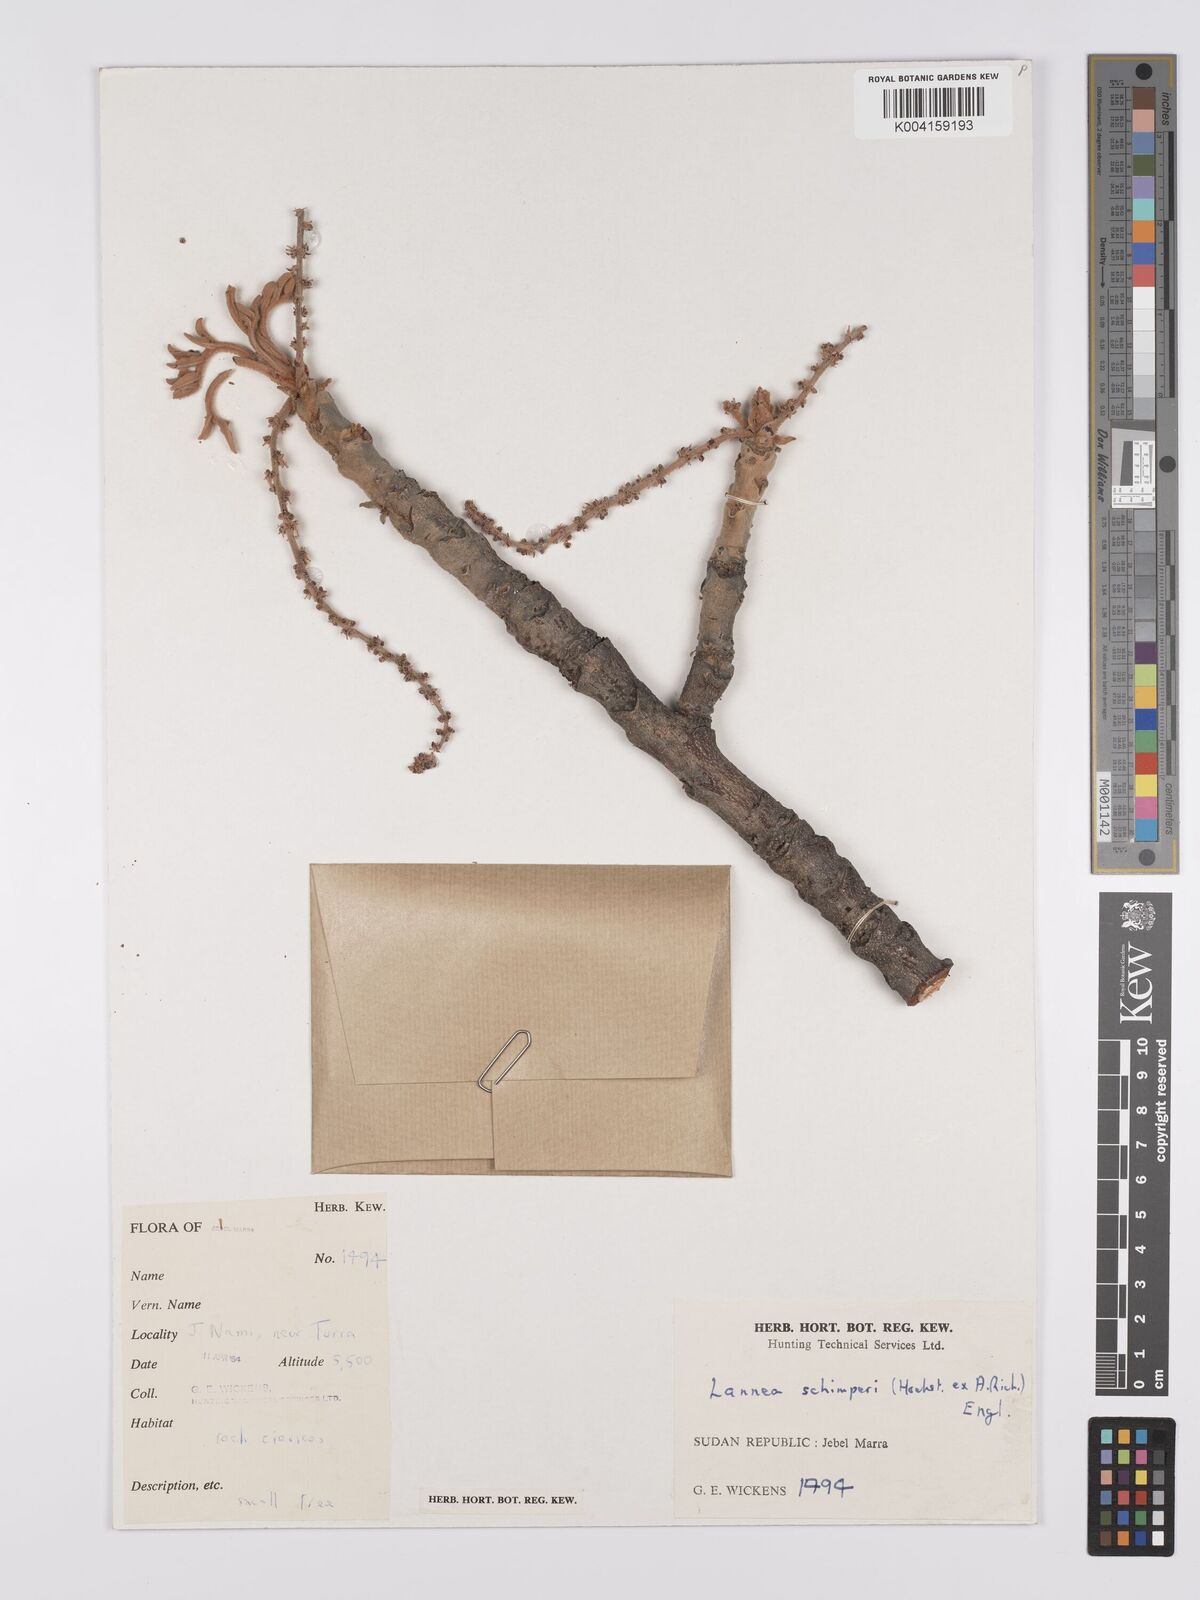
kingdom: Plantae
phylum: Tracheophyta
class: Magnoliopsida
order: Sapindales
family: Anacardiaceae
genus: Lannea
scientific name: Lannea schimperi
